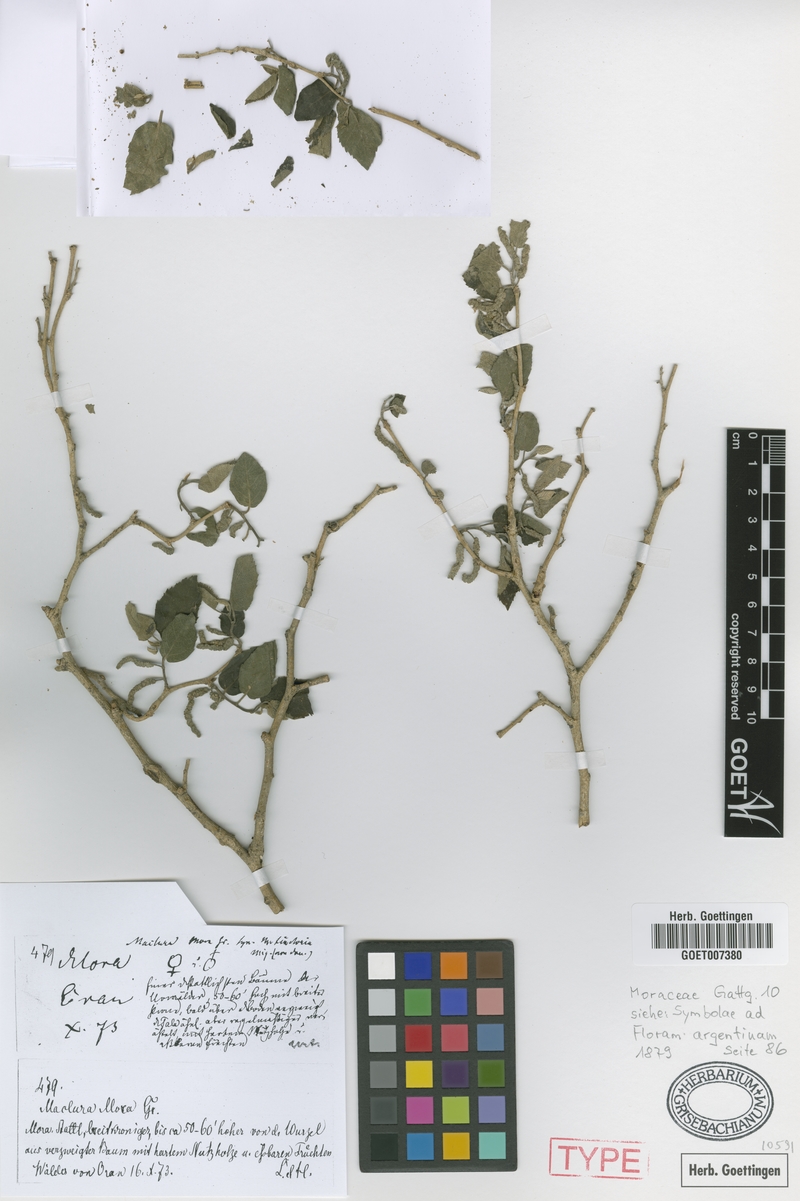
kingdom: Plantae
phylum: Tracheophyta
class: Magnoliopsida
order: Rosales
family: Moraceae
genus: Maclura
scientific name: Maclura tinctoria
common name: Old fustic
